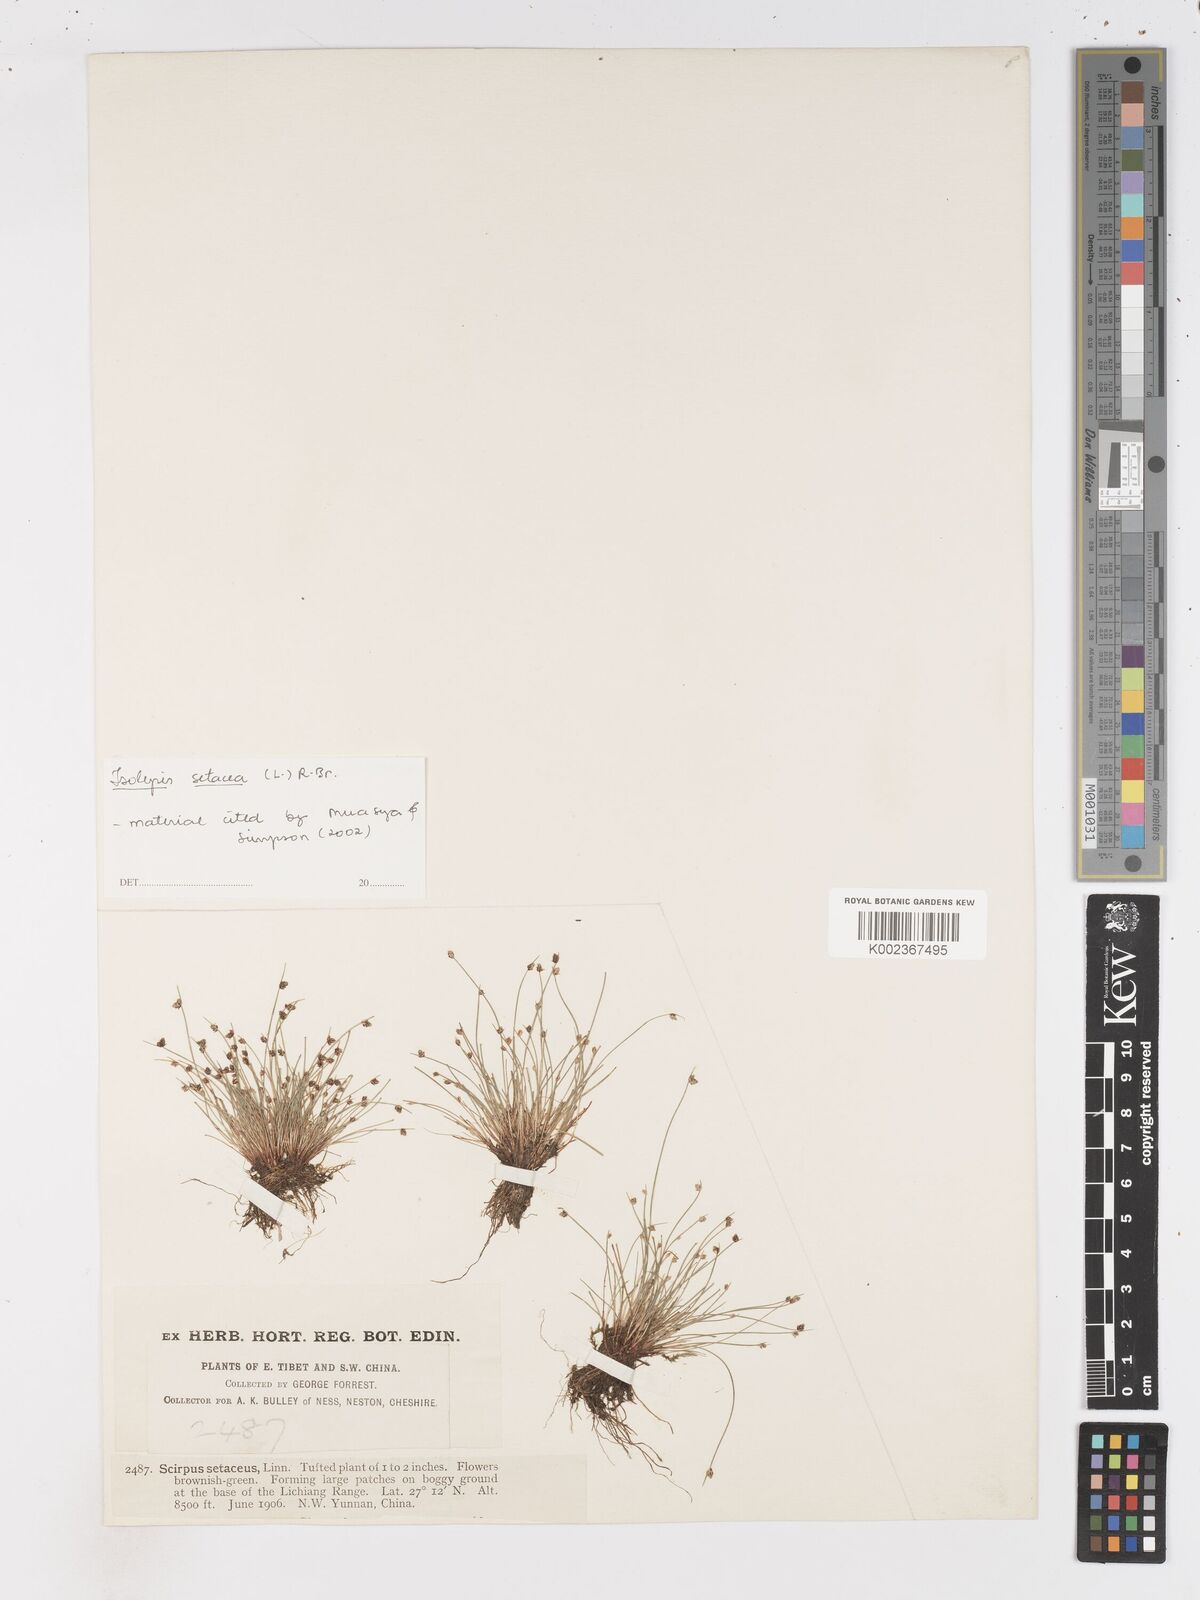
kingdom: Plantae
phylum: Tracheophyta
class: Liliopsida
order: Poales
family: Cyperaceae
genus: Isolepis
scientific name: Isolepis setacea
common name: Bristle club-rush
